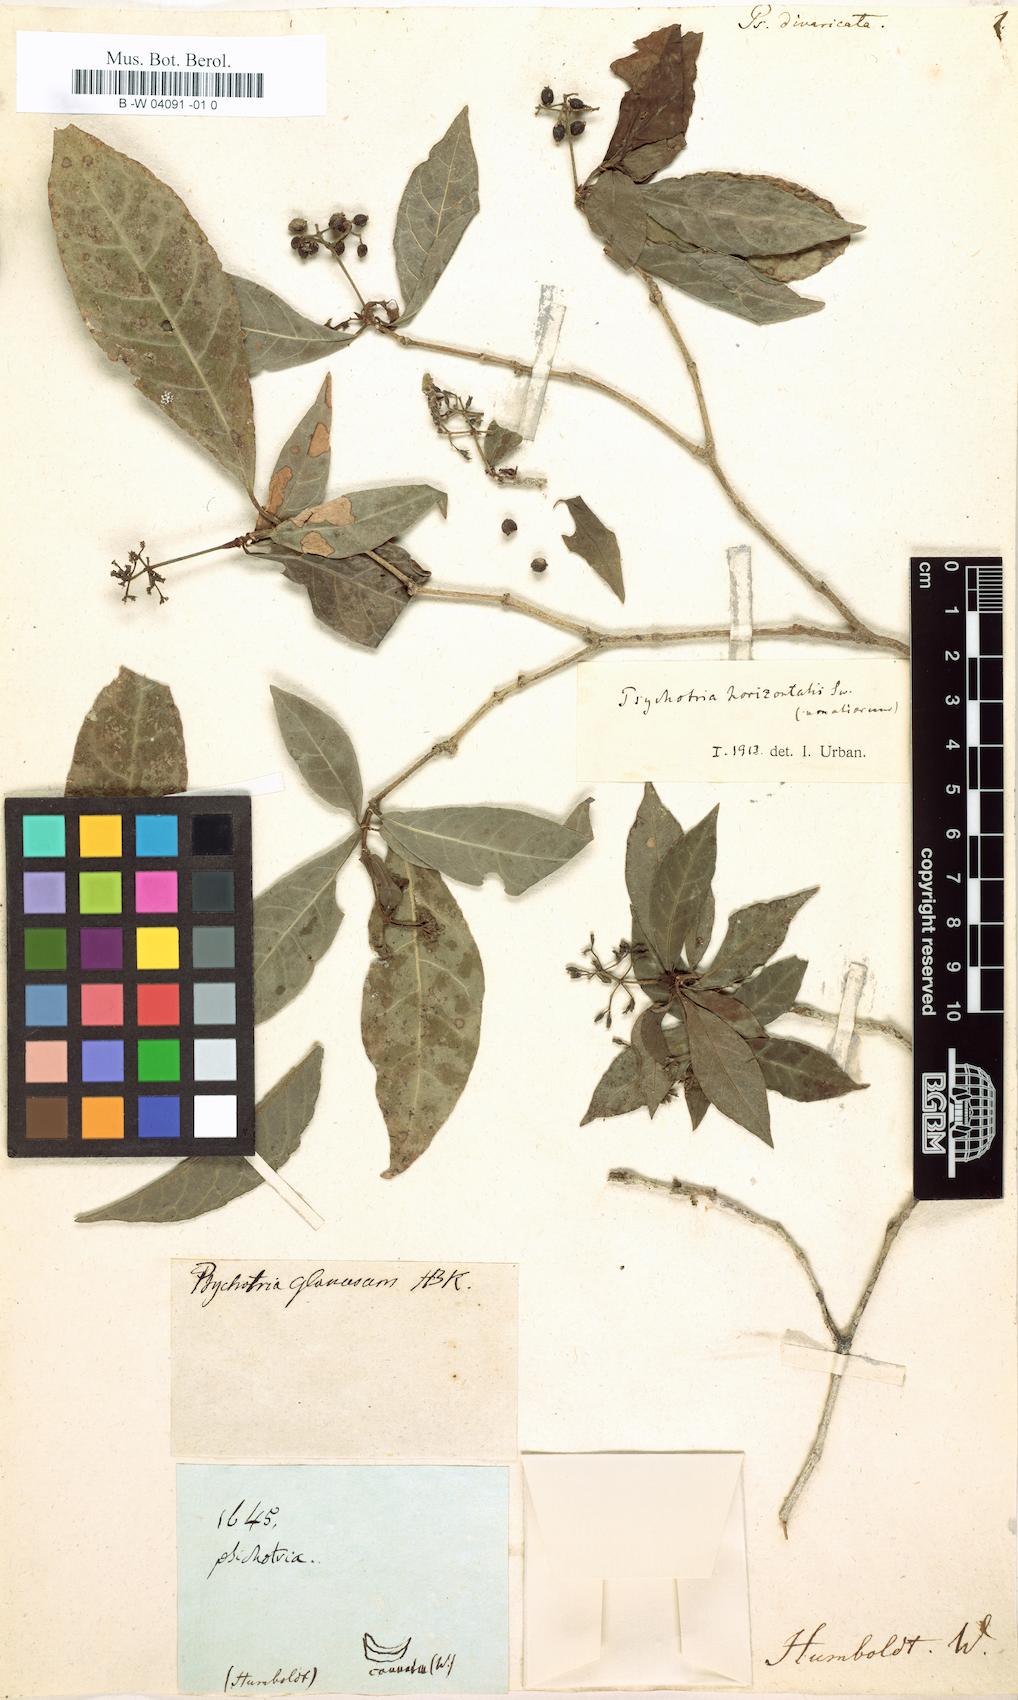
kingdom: Plantae
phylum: Tracheophyta
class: Magnoliopsida
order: Gentianales
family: Rubiaceae
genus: Psychotria
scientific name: Psychotria
